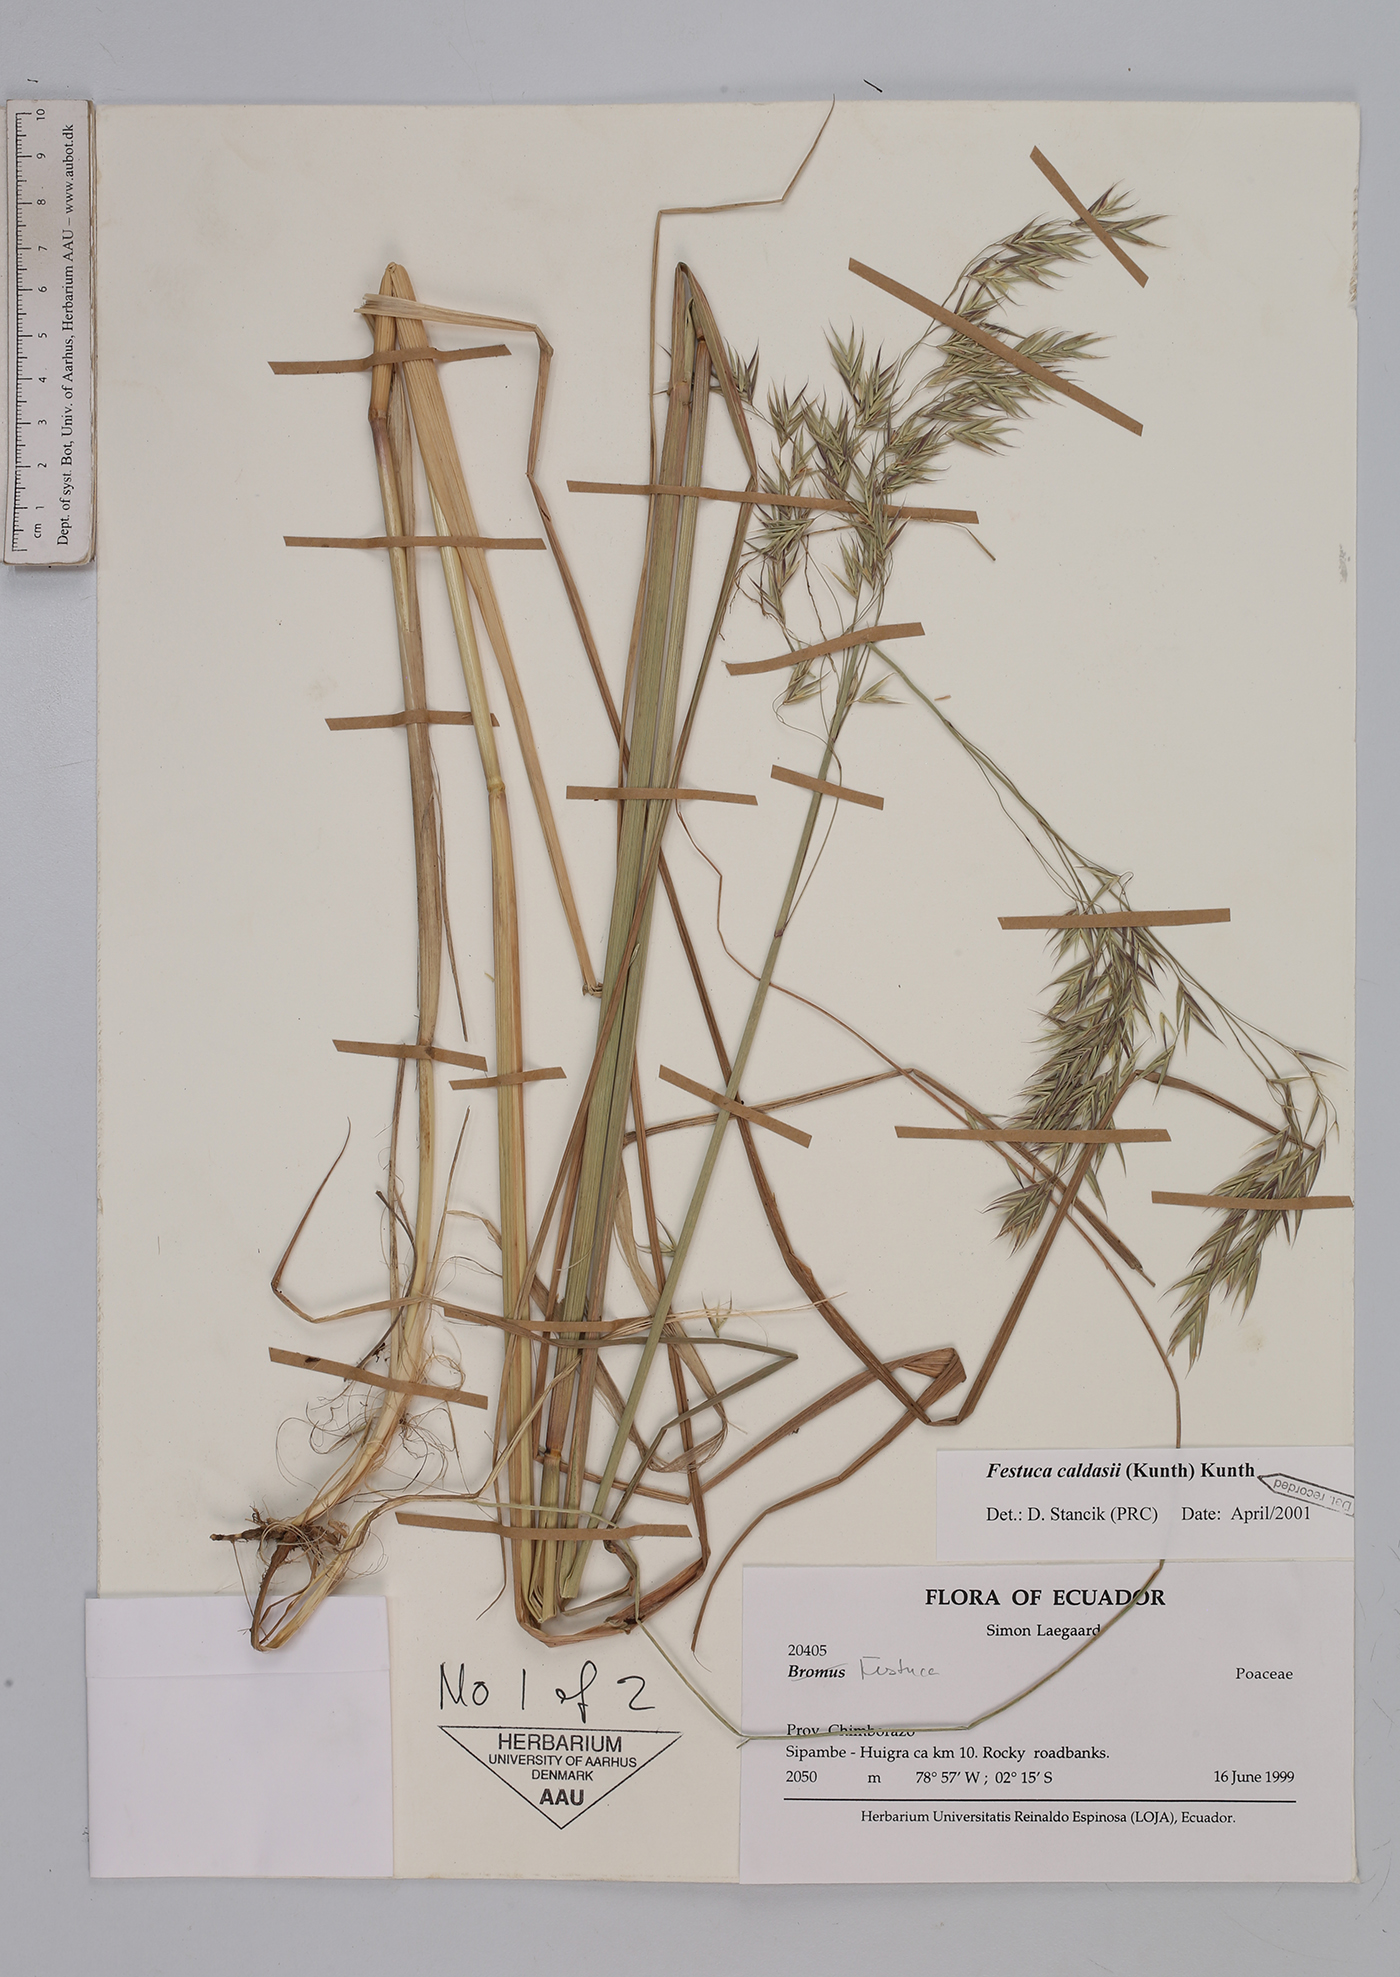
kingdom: Plantae
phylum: Tracheophyta
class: Liliopsida
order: Poales
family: Poaceae
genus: Festuca
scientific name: Festuca caldasii
